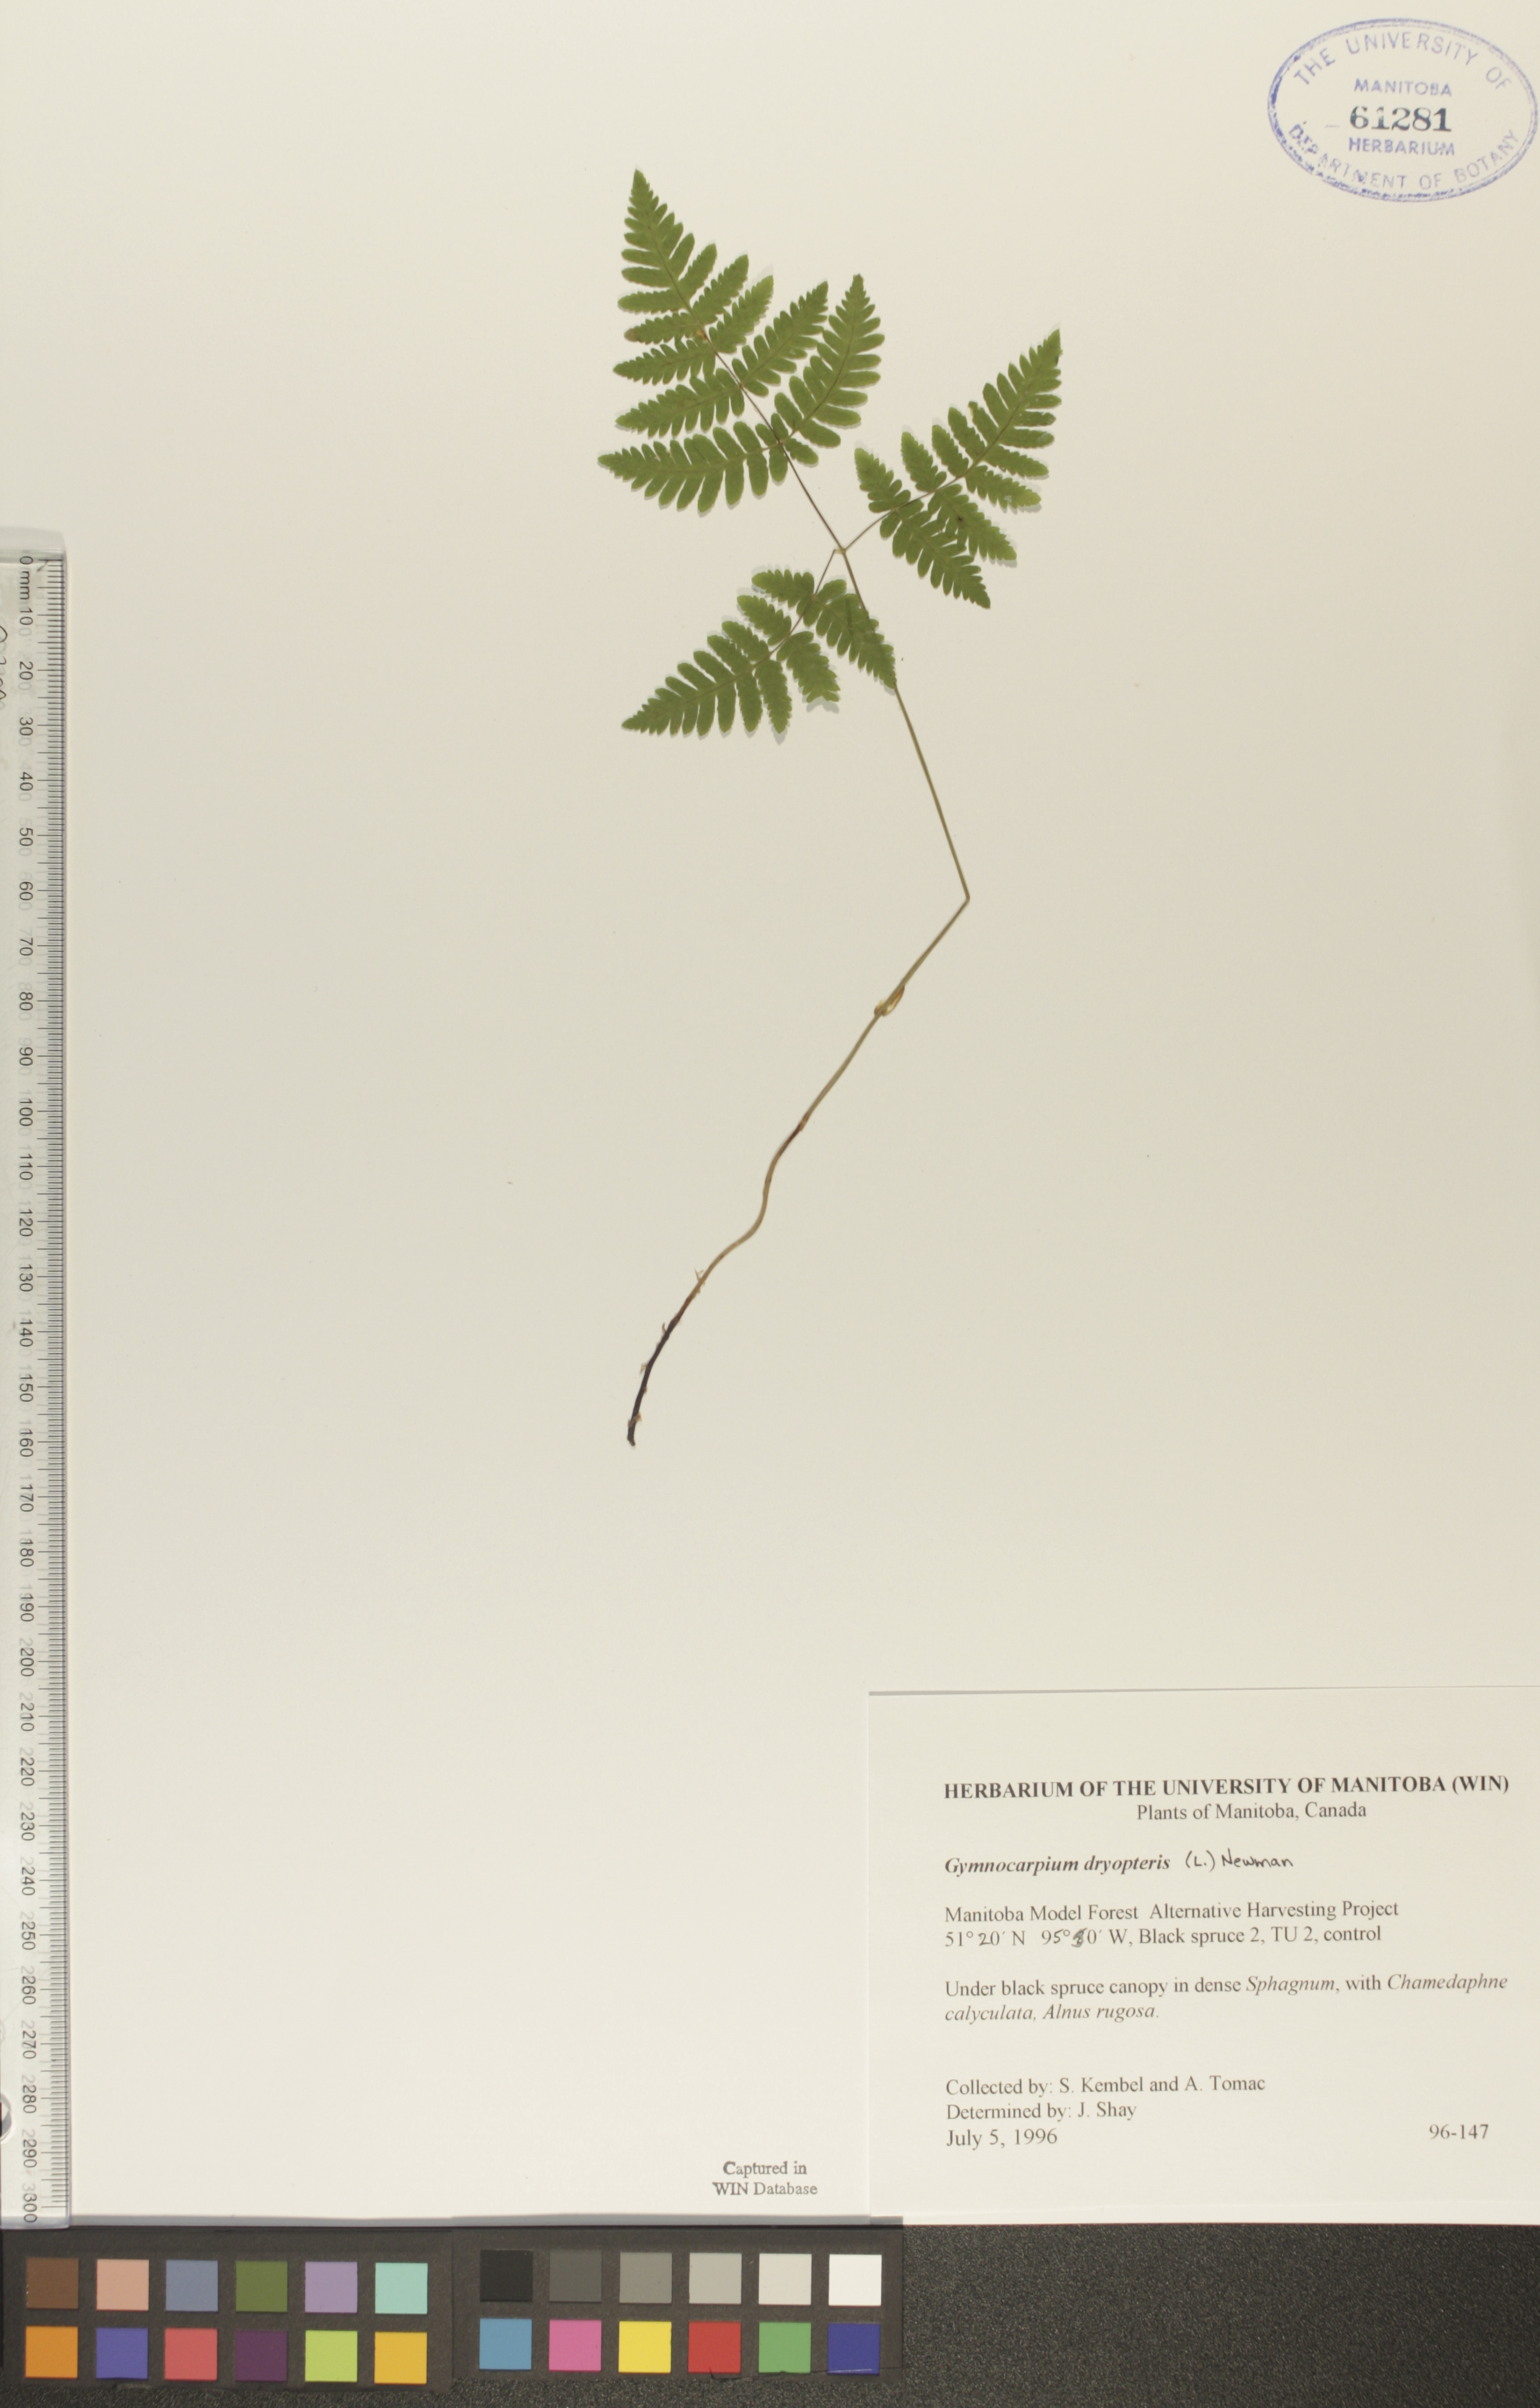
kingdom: Plantae
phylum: Tracheophyta
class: Polypodiopsida
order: Polypodiales
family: Cystopteridaceae
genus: Gymnocarpium
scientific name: Gymnocarpium dryopteris
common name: Oak fern
